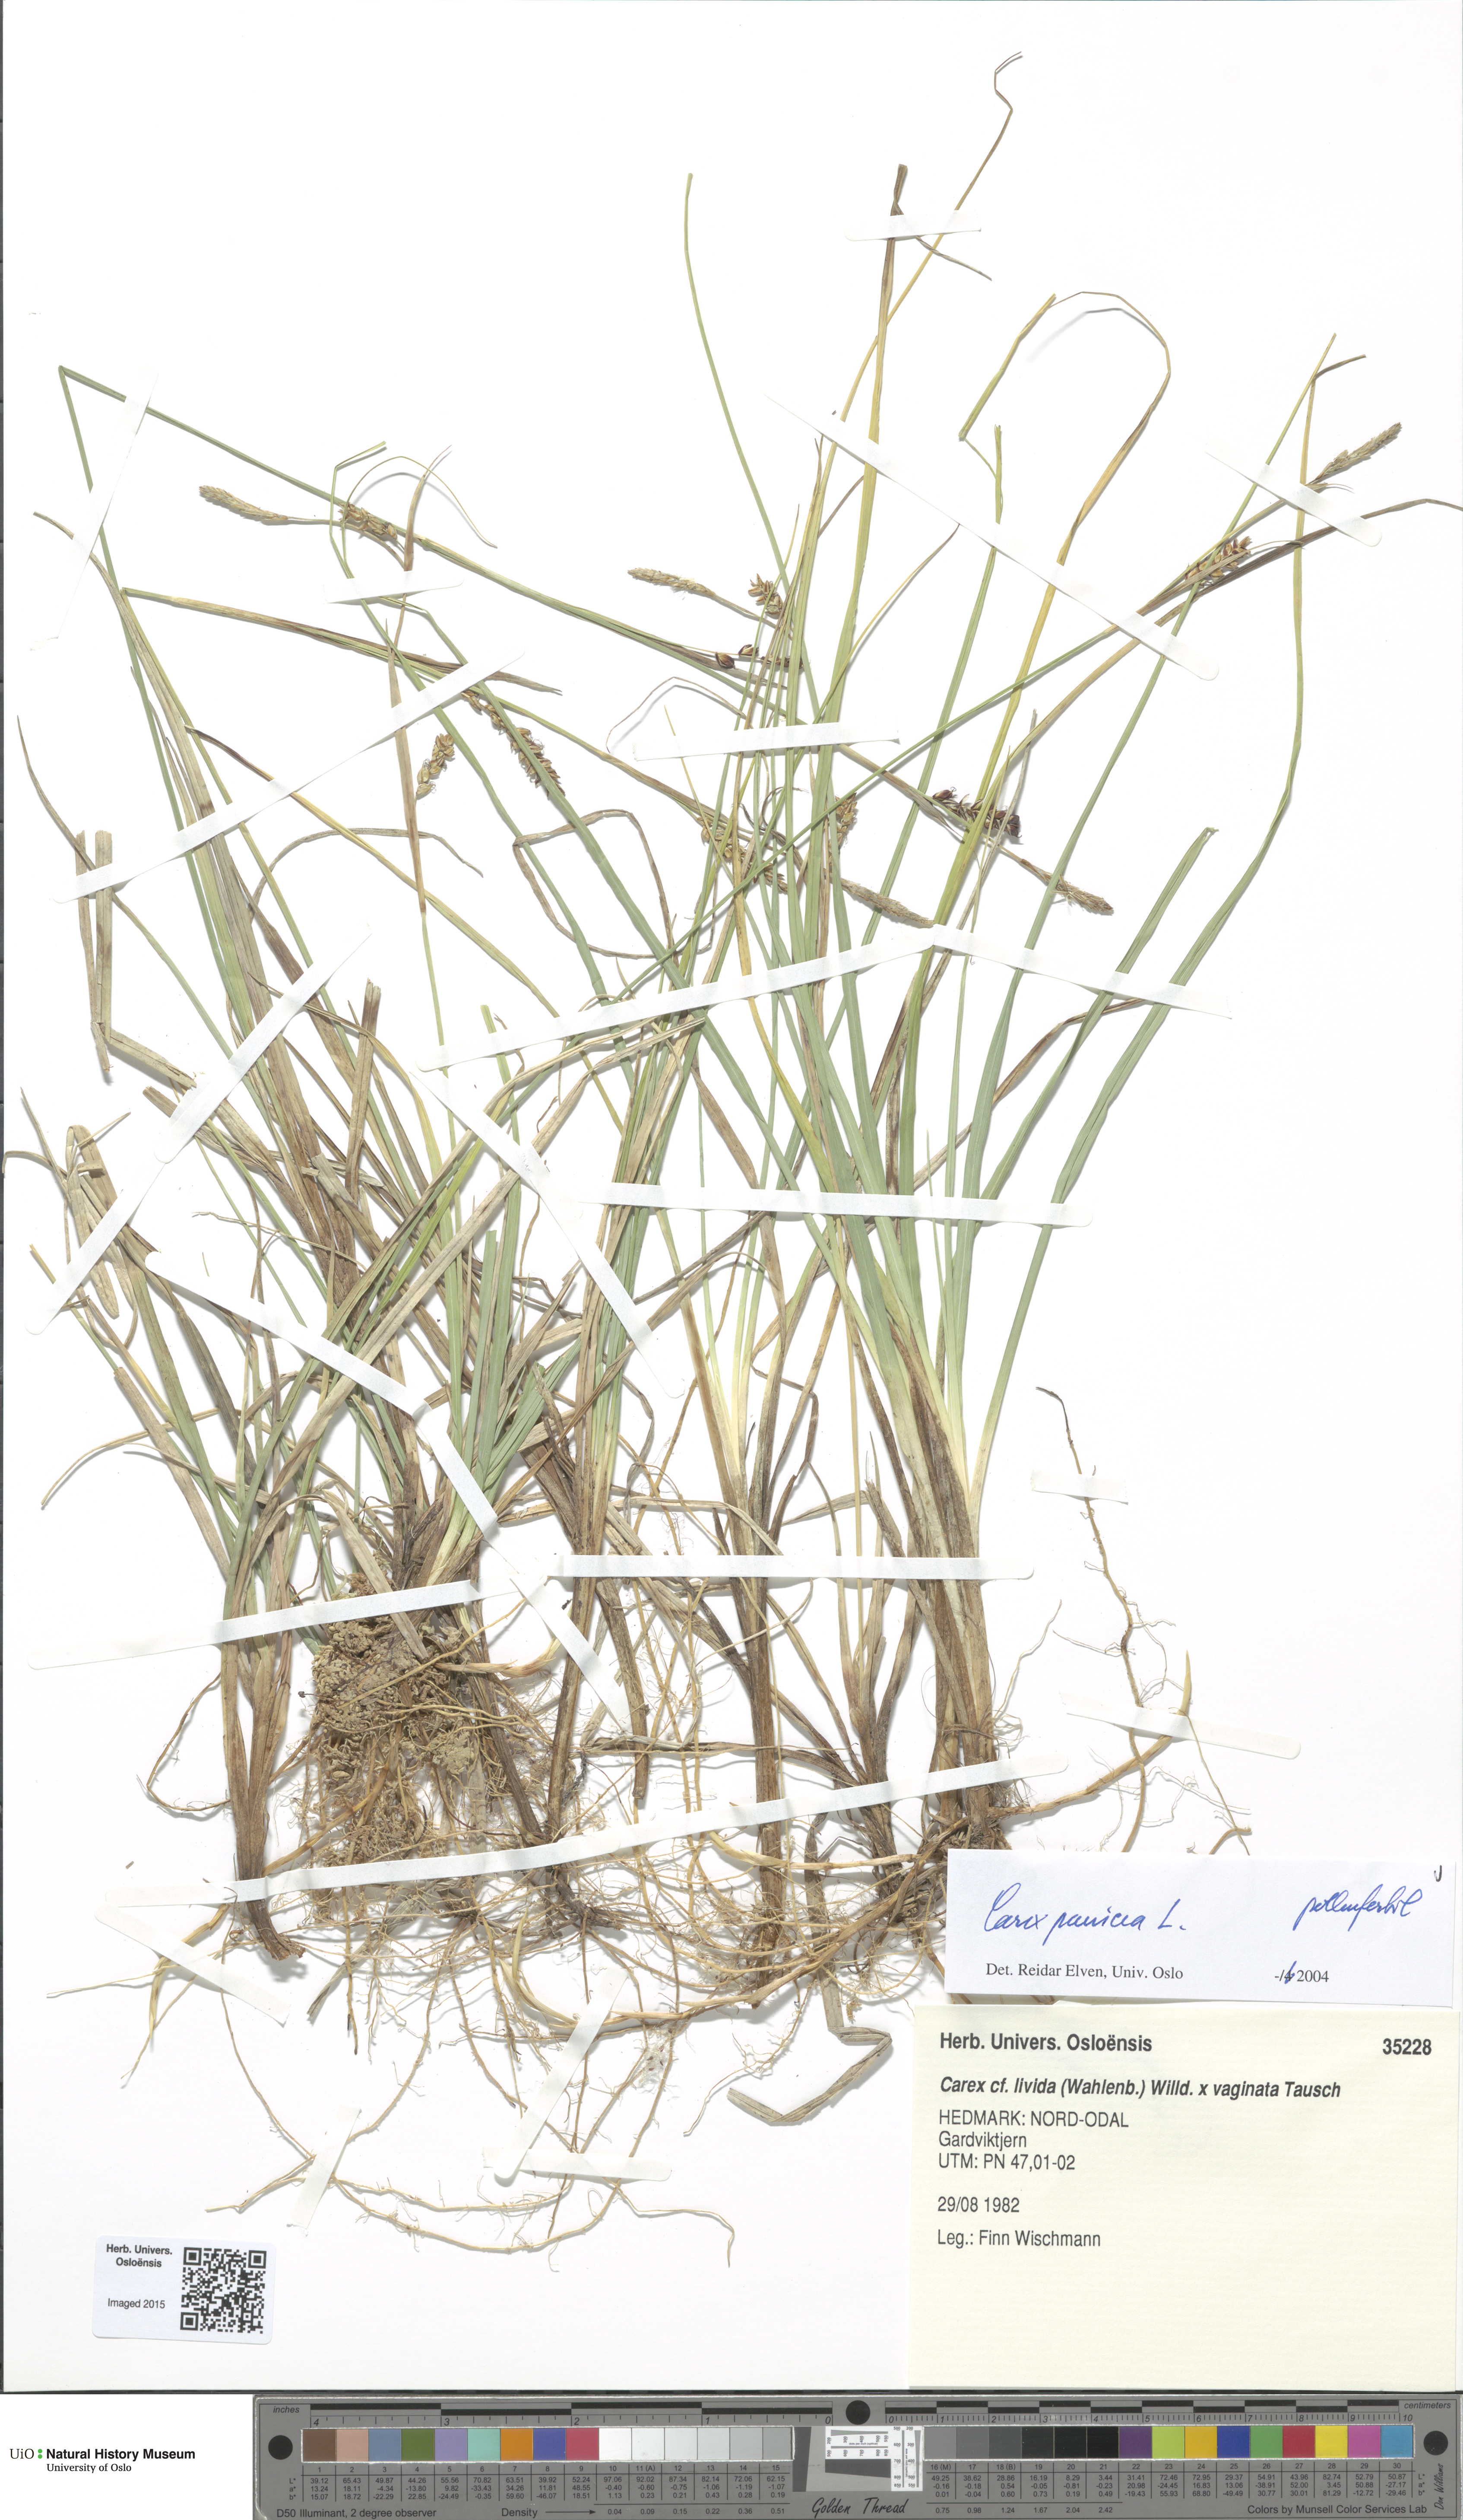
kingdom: Plantae
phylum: Tracheophyta
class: Liliopsida
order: Poales
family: Cyperaceae
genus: Carex
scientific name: Carex panicea
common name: Carnation sedge
